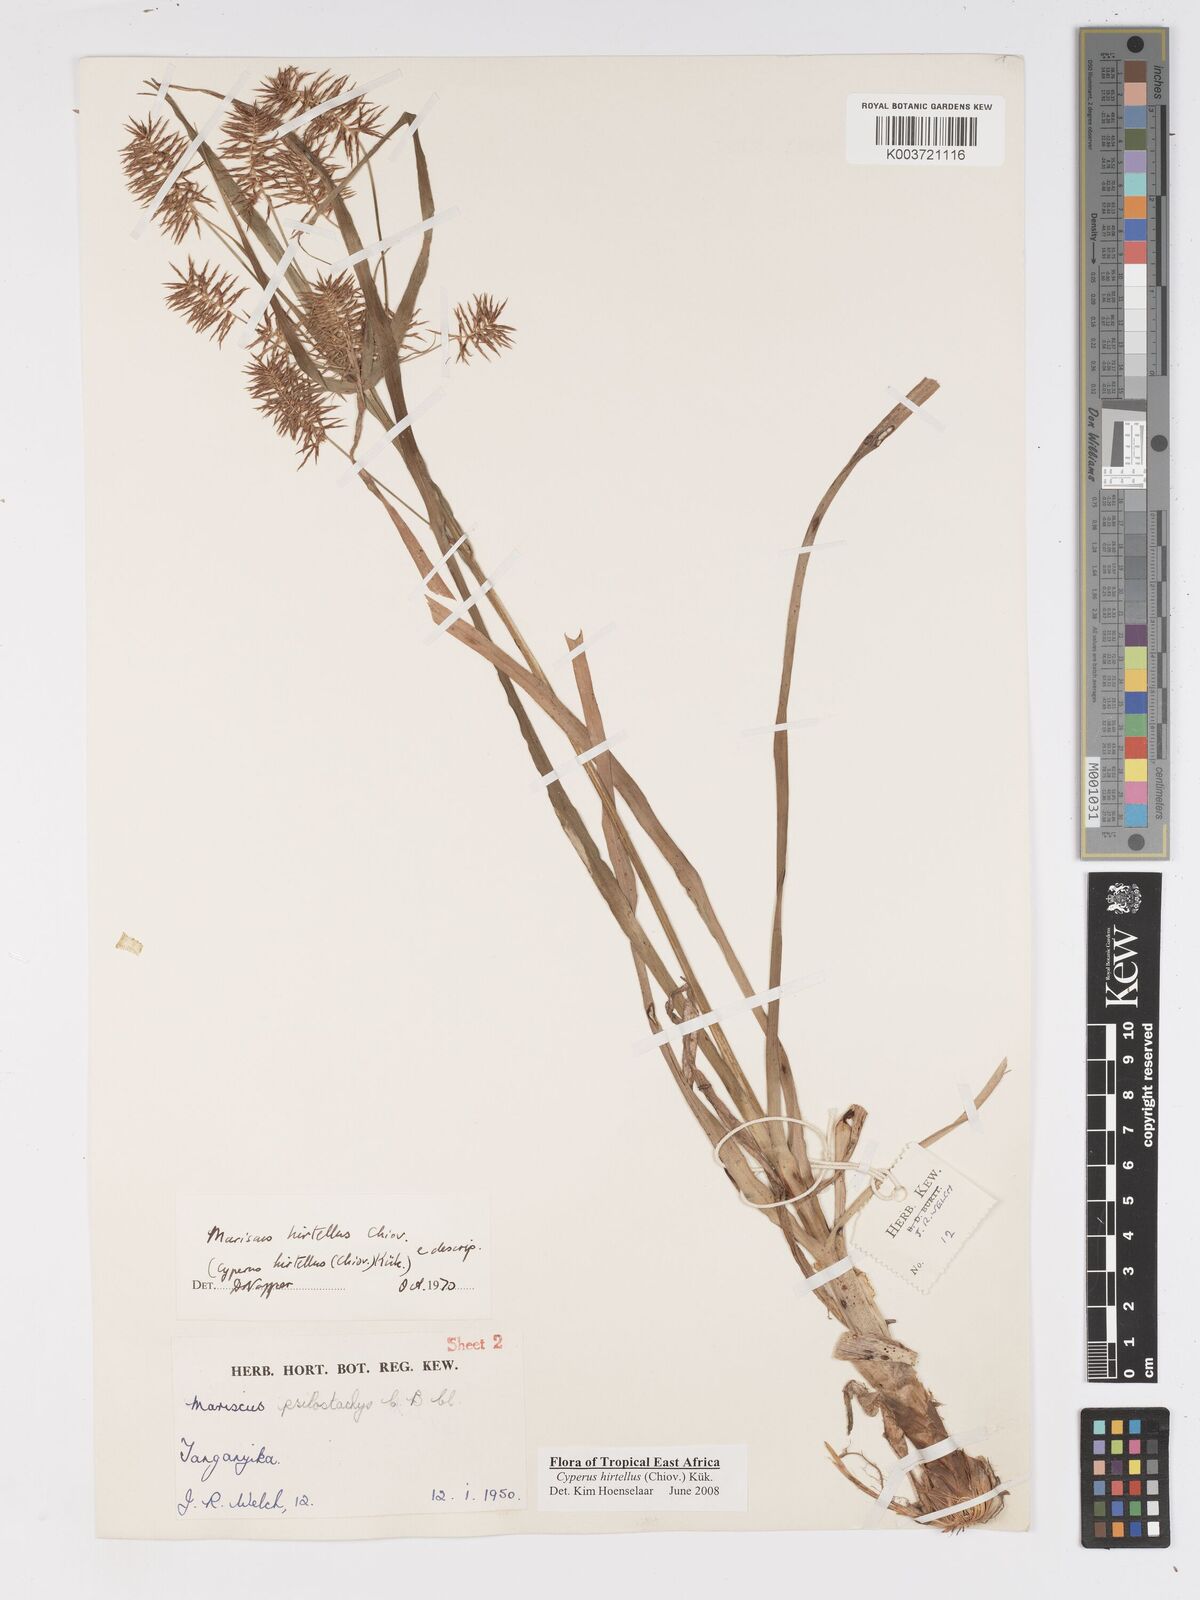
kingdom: Plantae
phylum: Tracheophyta
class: Liliopsida
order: Poales
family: Cyperaceae
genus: Cyperus
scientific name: Cyperus hirtellus
